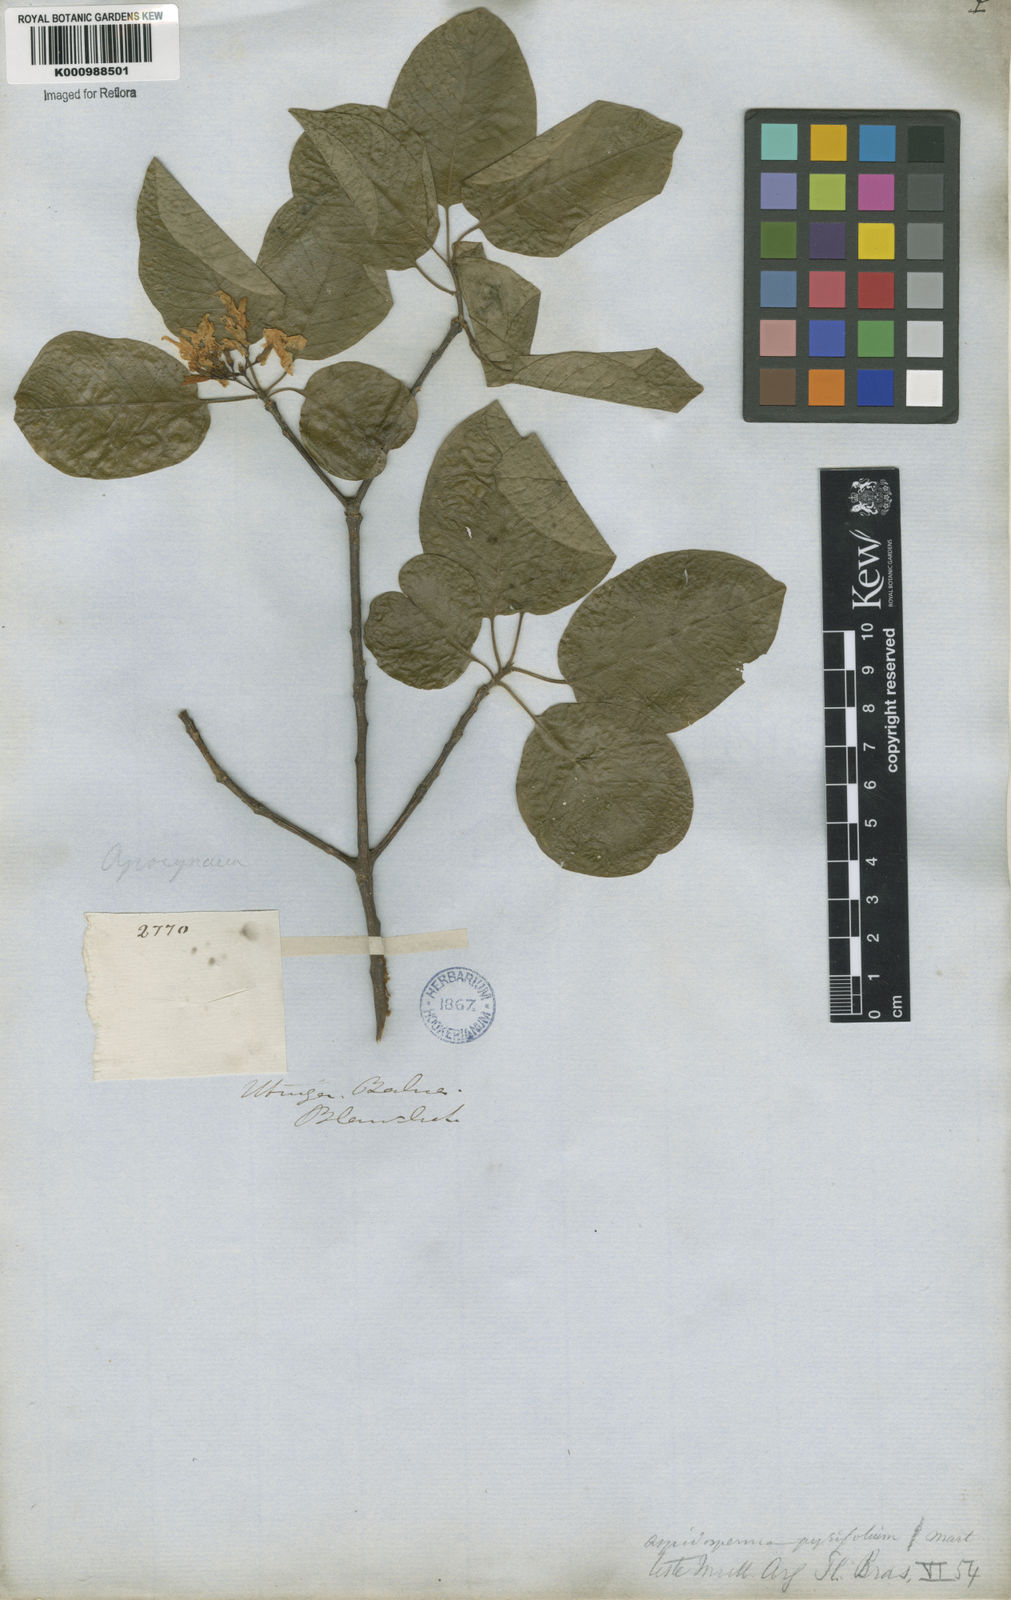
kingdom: Plantae
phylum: Tracheophyta
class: Magnoliopsida
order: Gentianales
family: Apocynaceae
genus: Aspidosperma
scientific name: Aspidosperma pyrifolium
